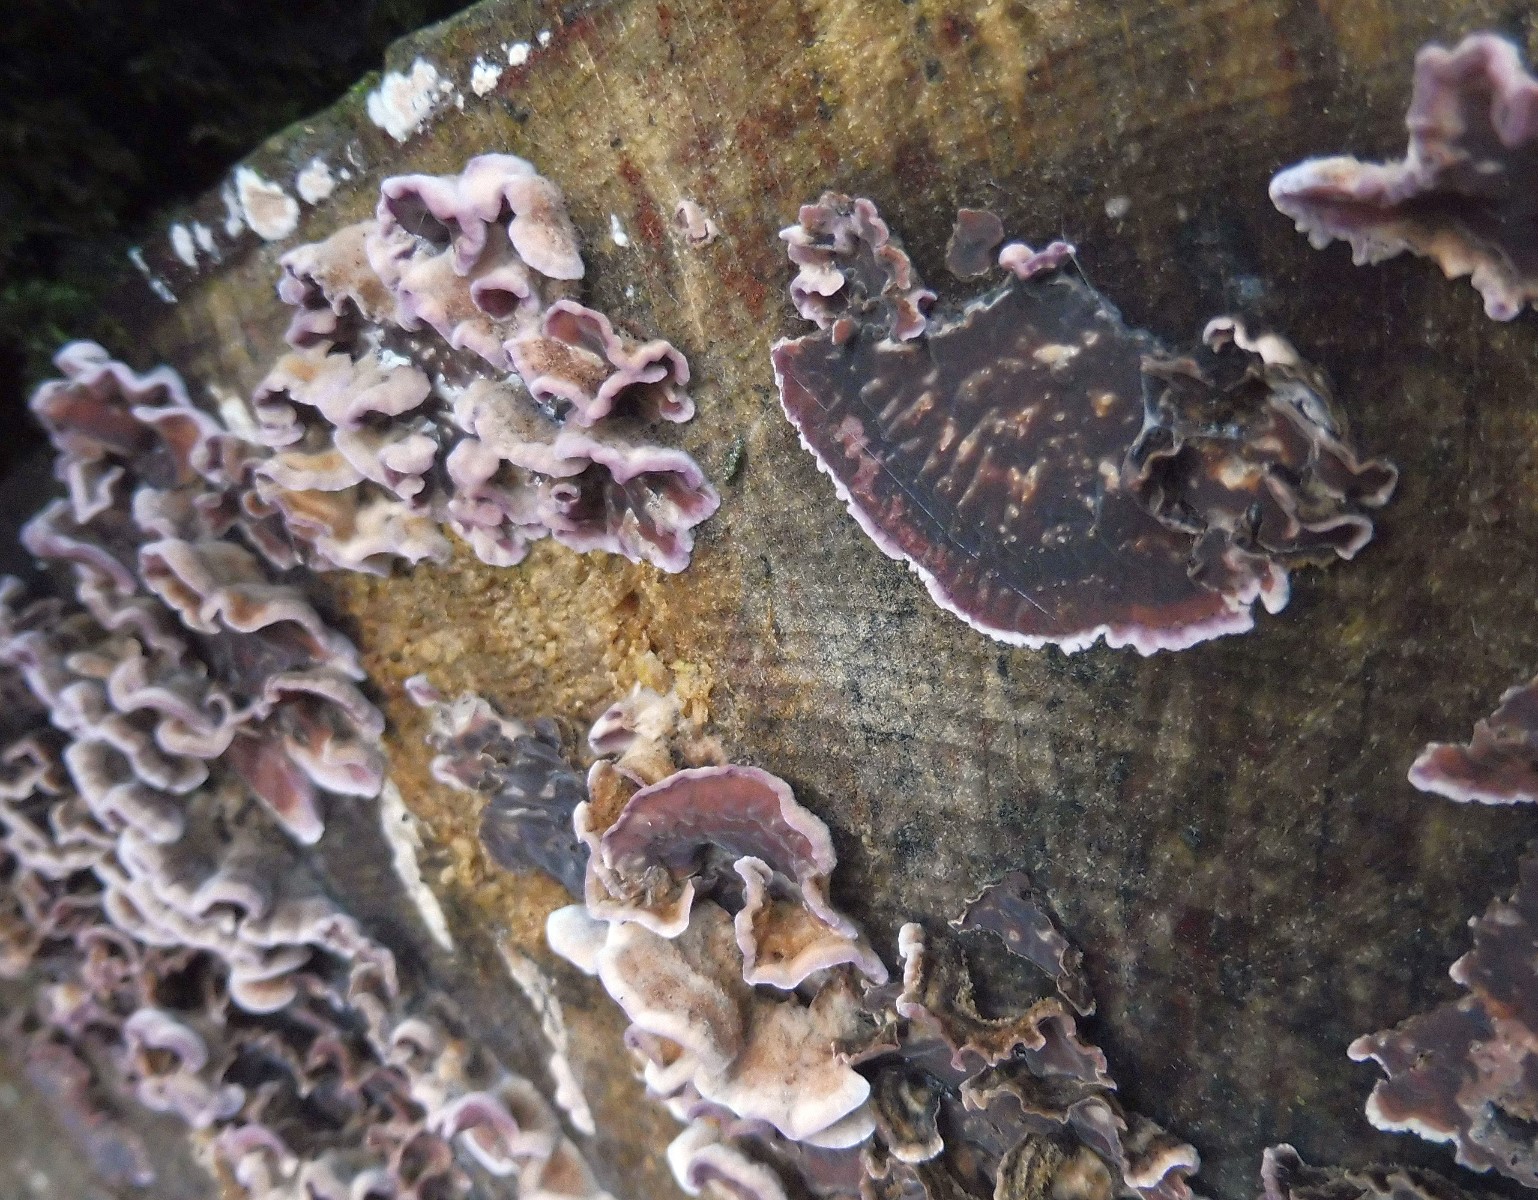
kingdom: Fungi
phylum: Basidiomycota
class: Agaricomycetes
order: Agaricales
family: Cyphellaceae
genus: Chondrostereum
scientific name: Chondrostereum purpureum
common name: purpurlædersvamp
